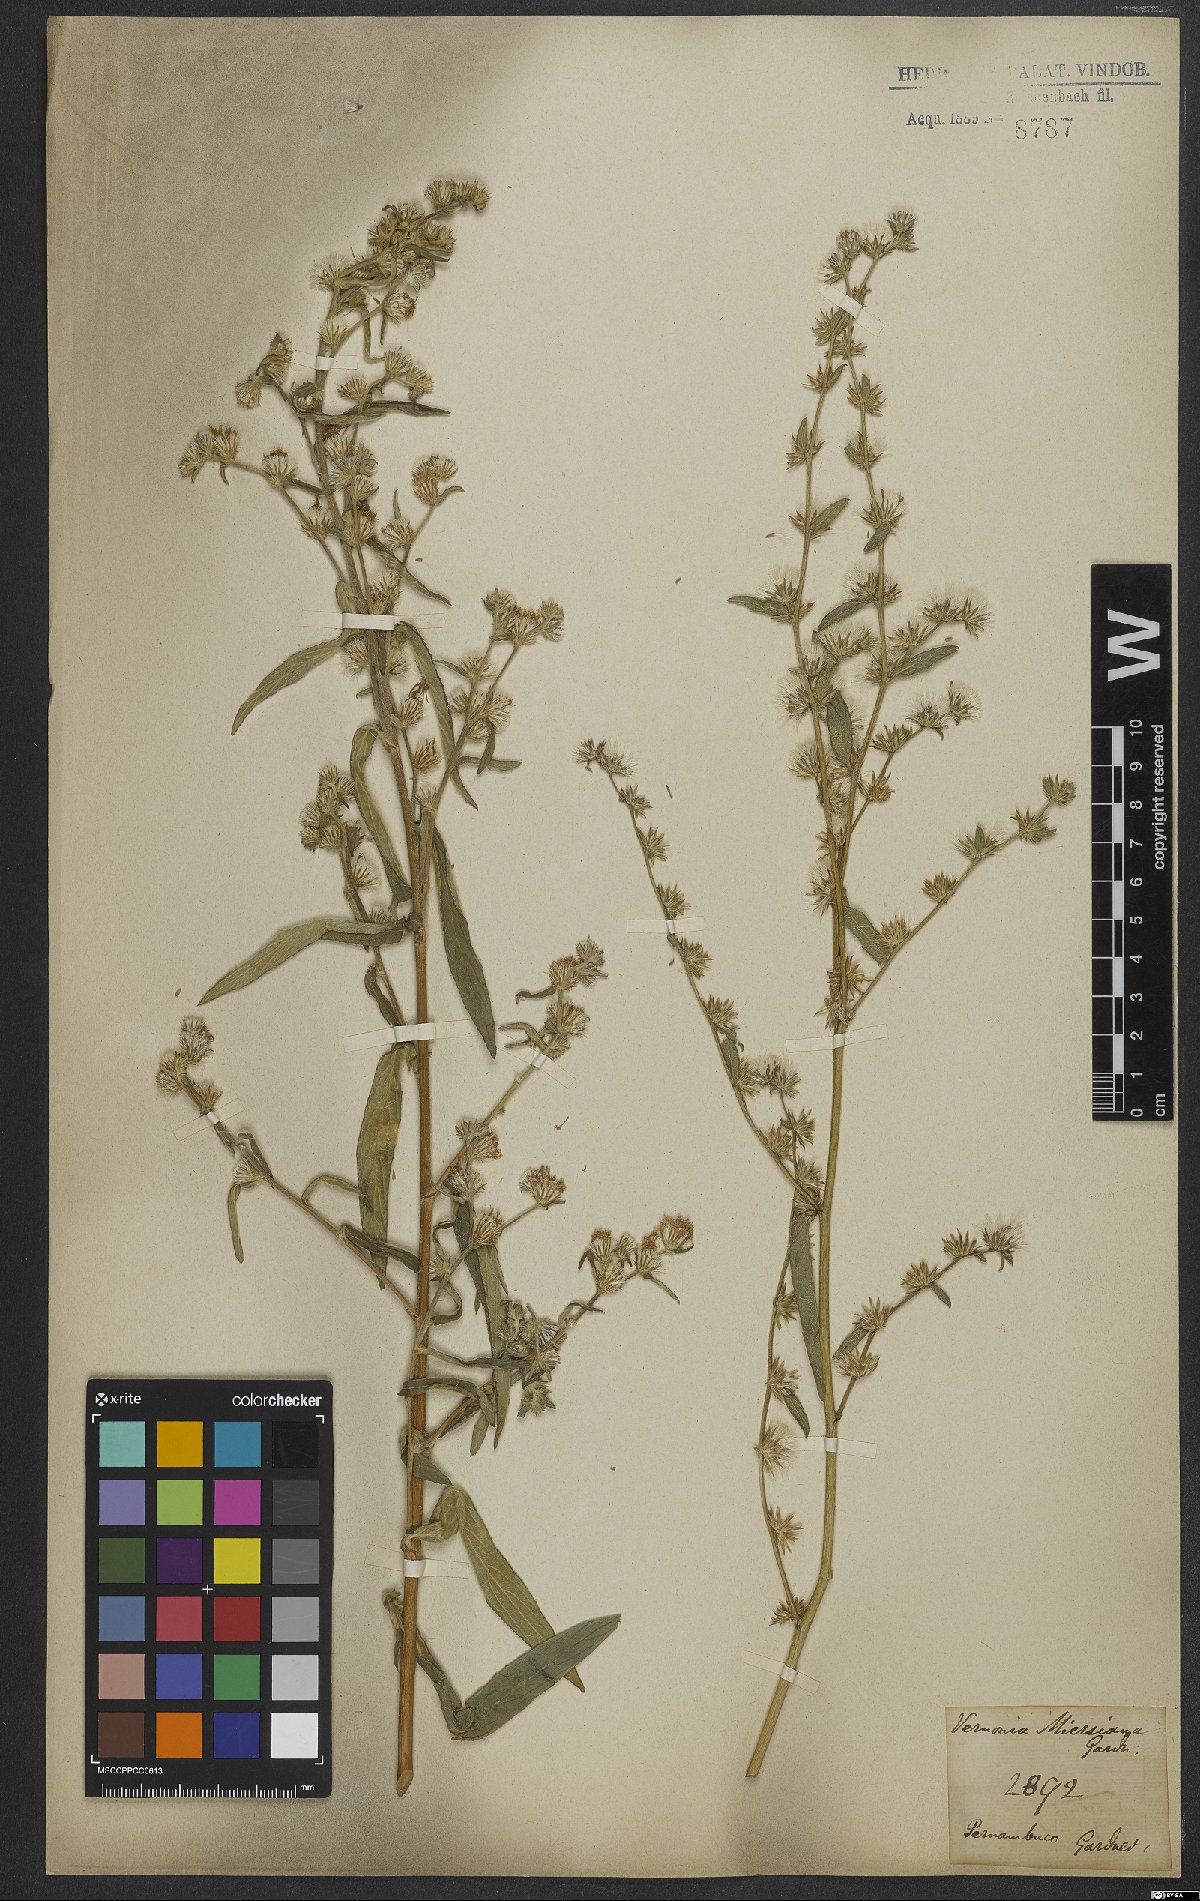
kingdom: Plantae
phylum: Tracheophyta
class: Magnoliopsida
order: Asterales
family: Asteraceae
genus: Lepidaploa
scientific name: Lepidaploa salzmannii
